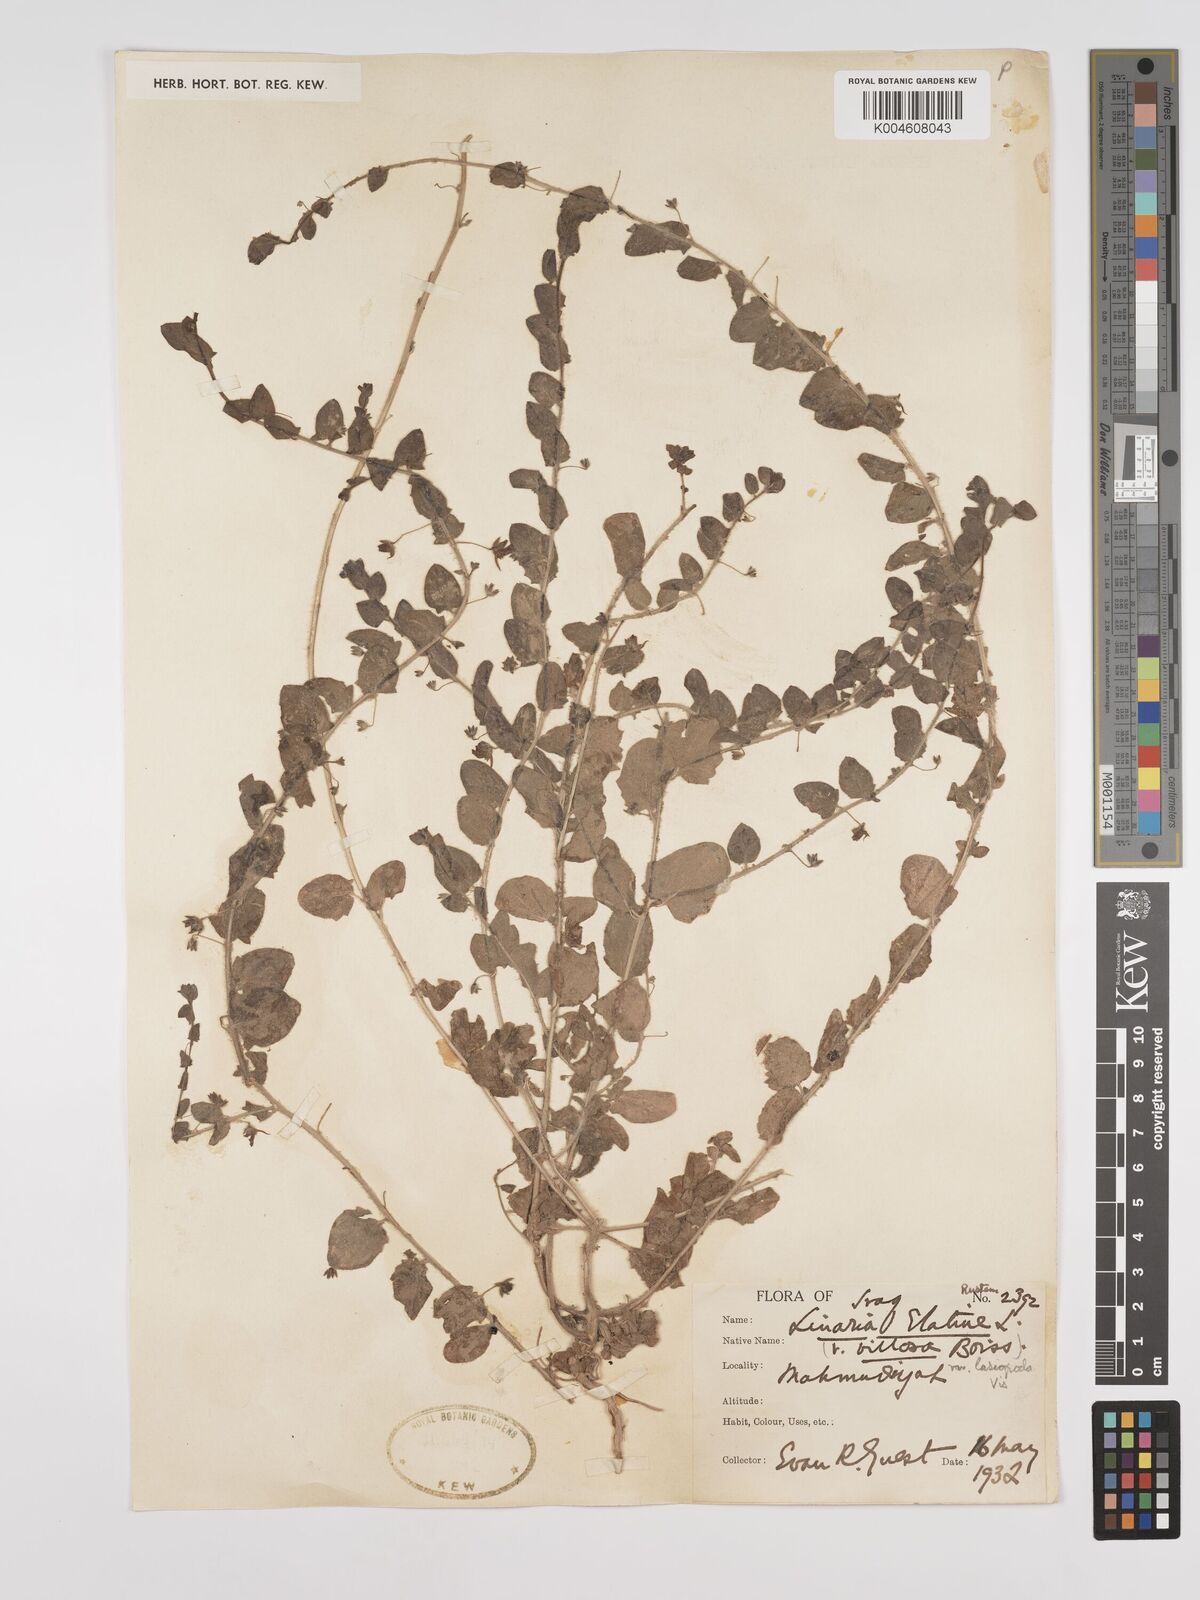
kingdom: Plantae
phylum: Tracheophyta
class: Magnoliopsida
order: Lamiales
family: Plantaginaceae
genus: Kickxia
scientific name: Kickxia elatine
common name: Sharp-leaved fluellen
